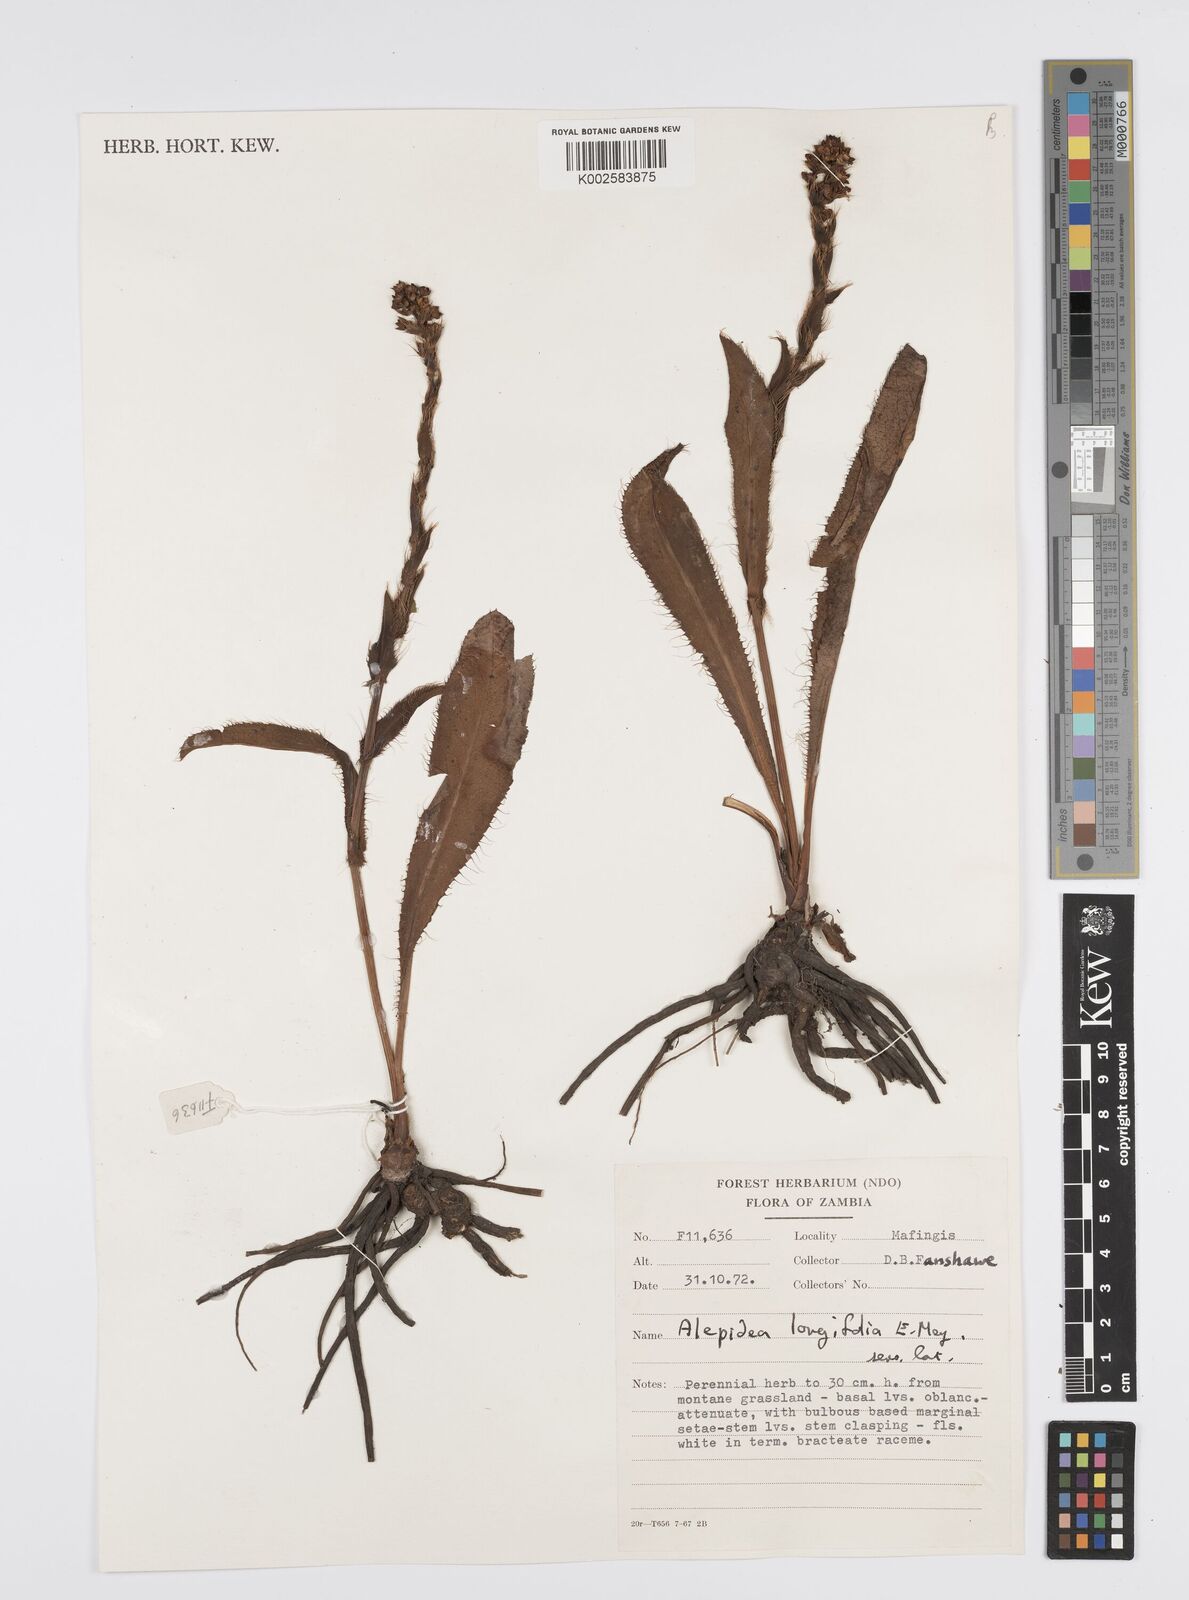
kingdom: Plantae
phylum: Tracheophyta
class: Magnoliopsida
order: Apiales
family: Apiaceae
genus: Alepidea
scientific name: Alepidea
